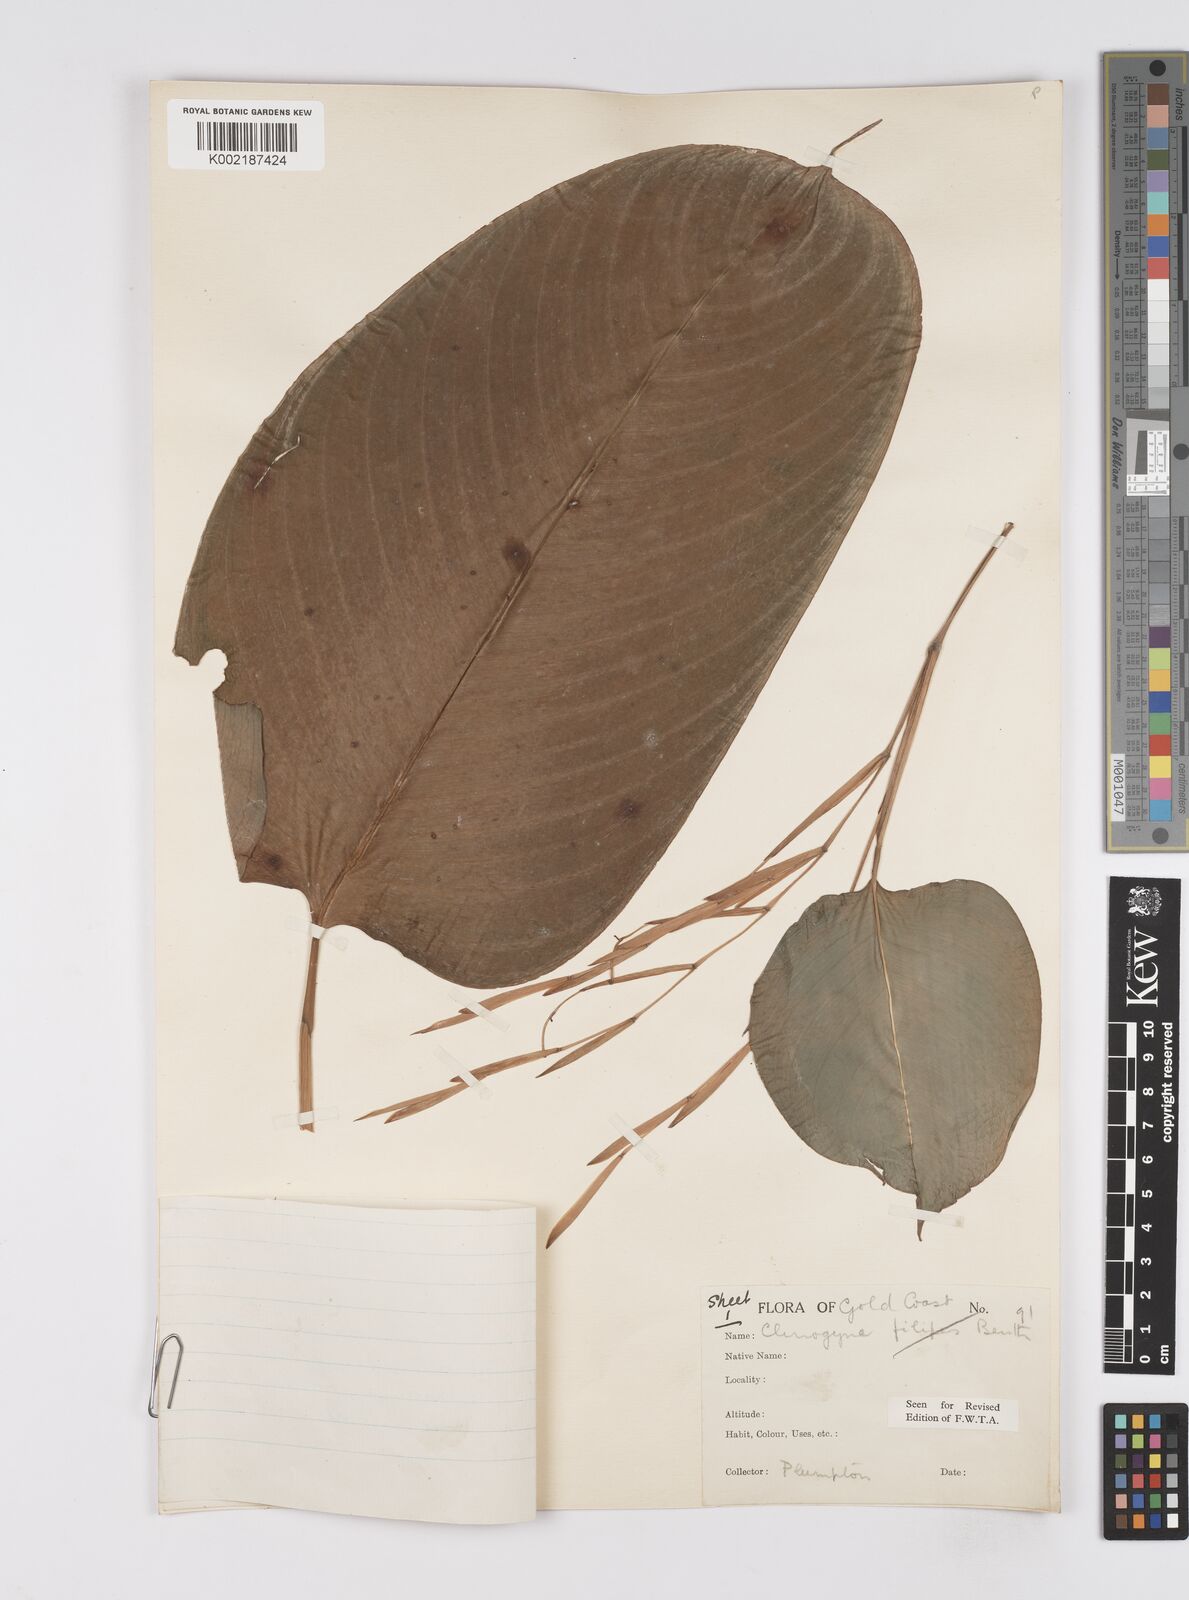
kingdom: Plantae
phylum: Tracheophyta
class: Liliopsida
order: Zingiberales
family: Marantaceae
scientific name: Marantaceae
